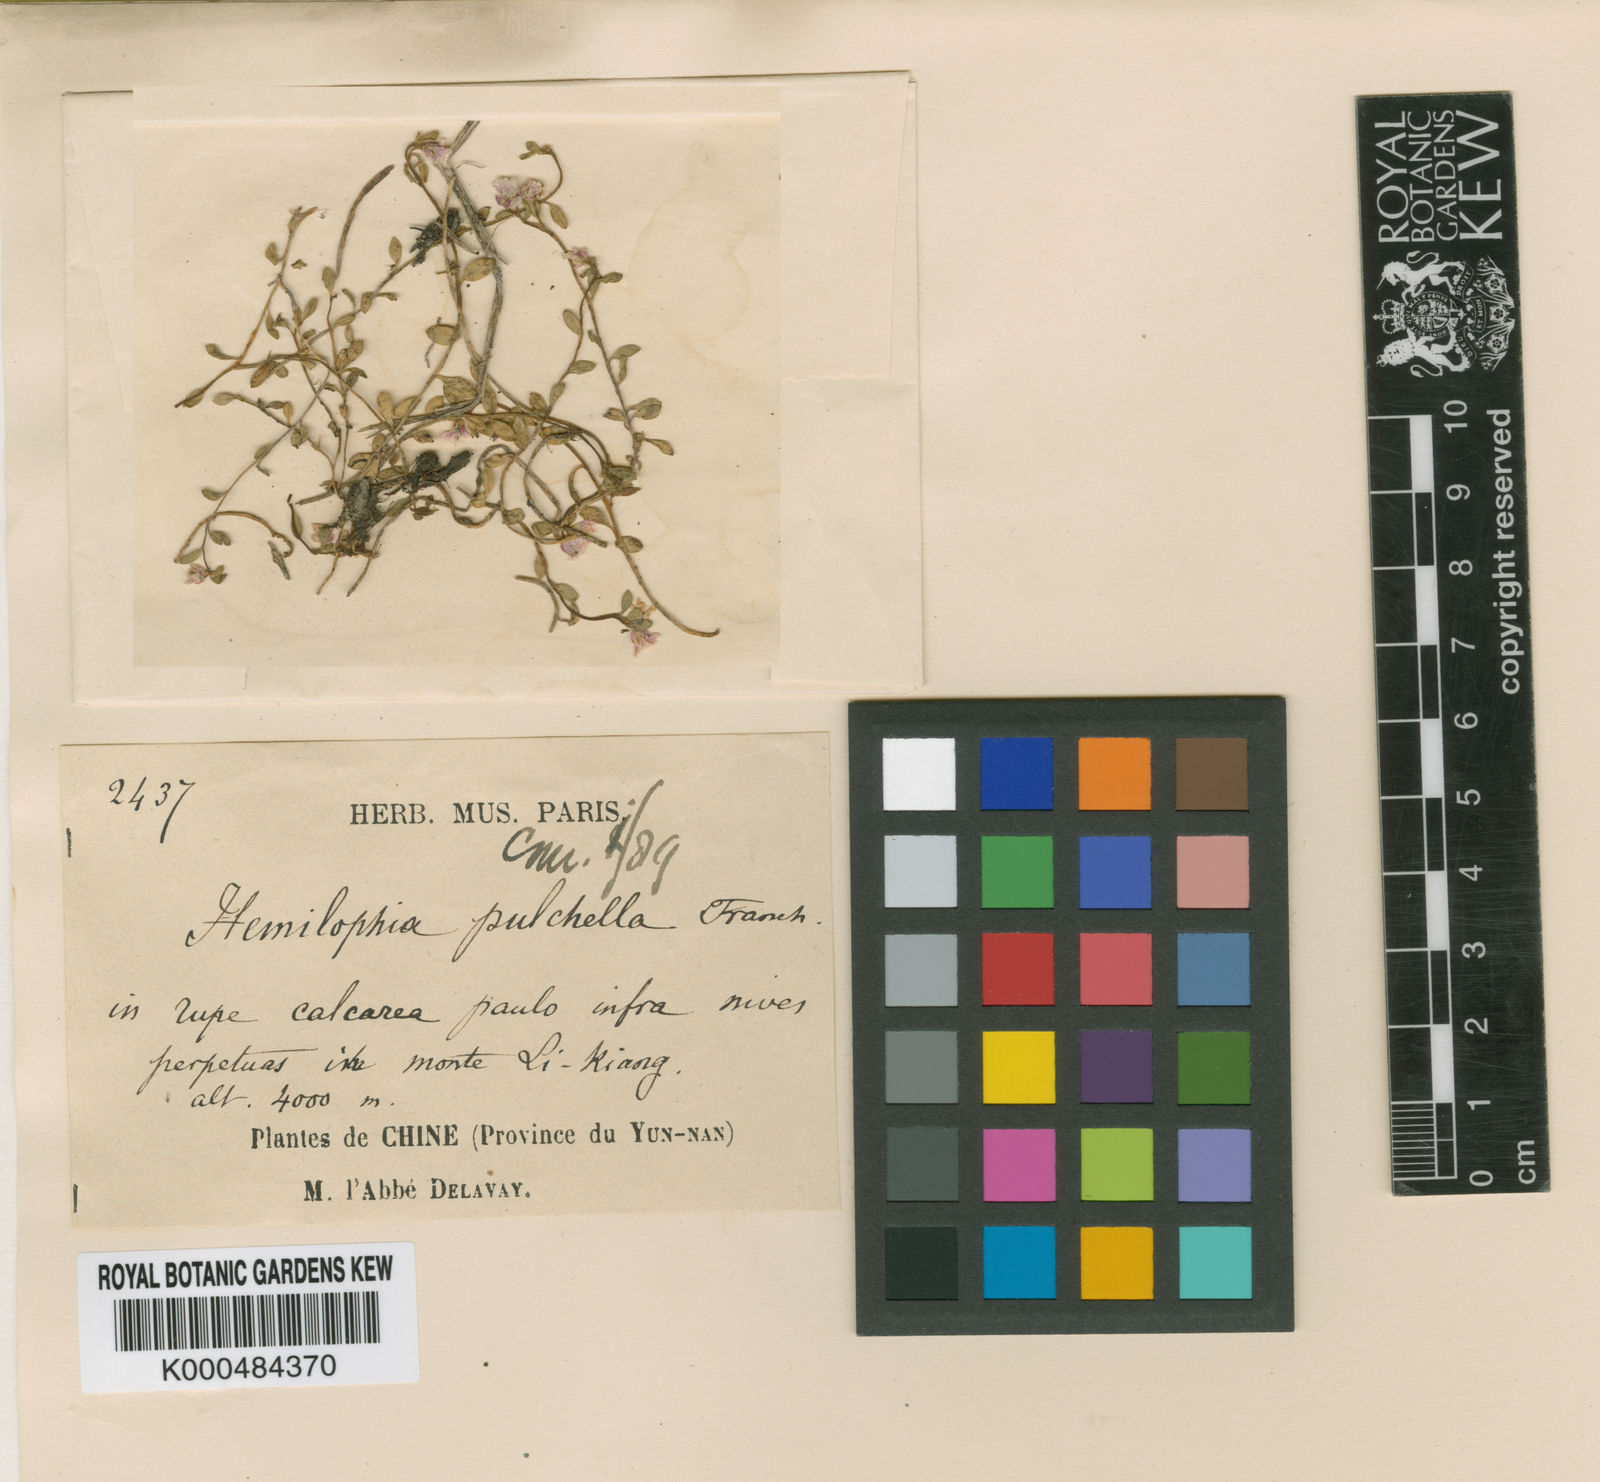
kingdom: Plantae
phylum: Tracheophyta
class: Magnoliopsida
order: Brassicales
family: Brassicaceae
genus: Hemilophia
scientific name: Hemilophia pulchella
